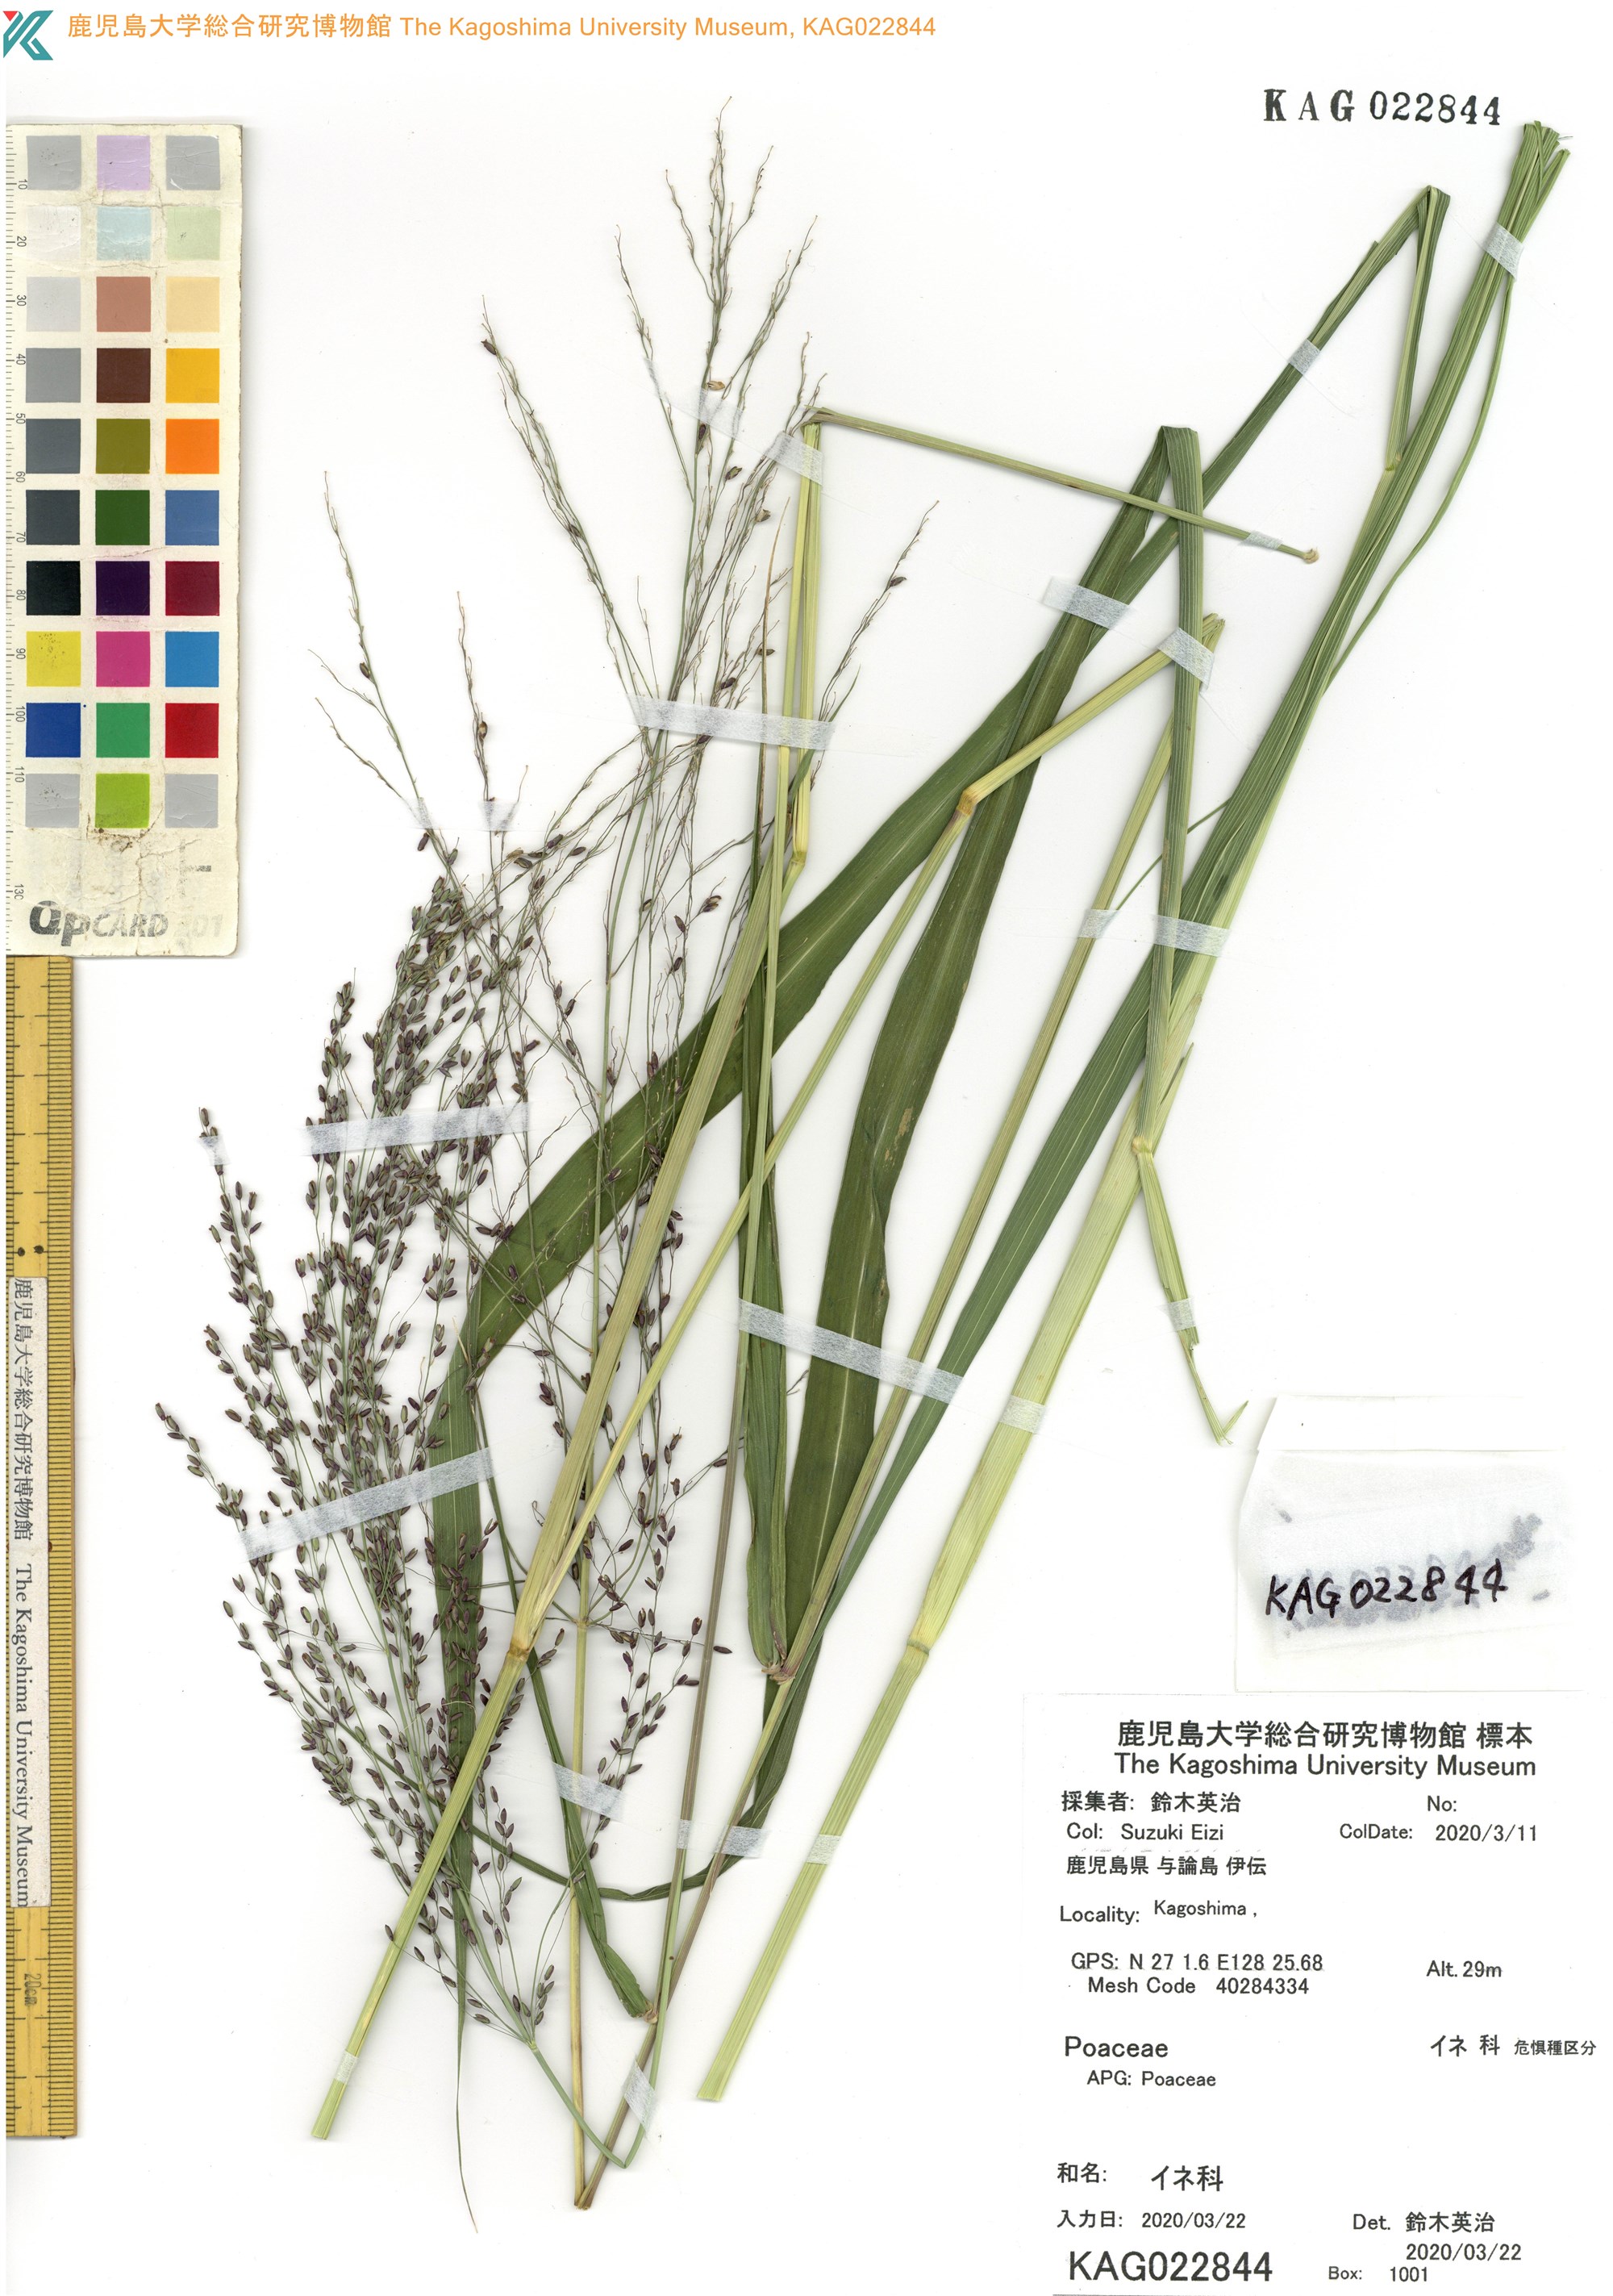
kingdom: Plantae
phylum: Tracheophyta
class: Liliopsida
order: Poales
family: Poaceae
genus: Panicum
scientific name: Panicum bisulcatum
